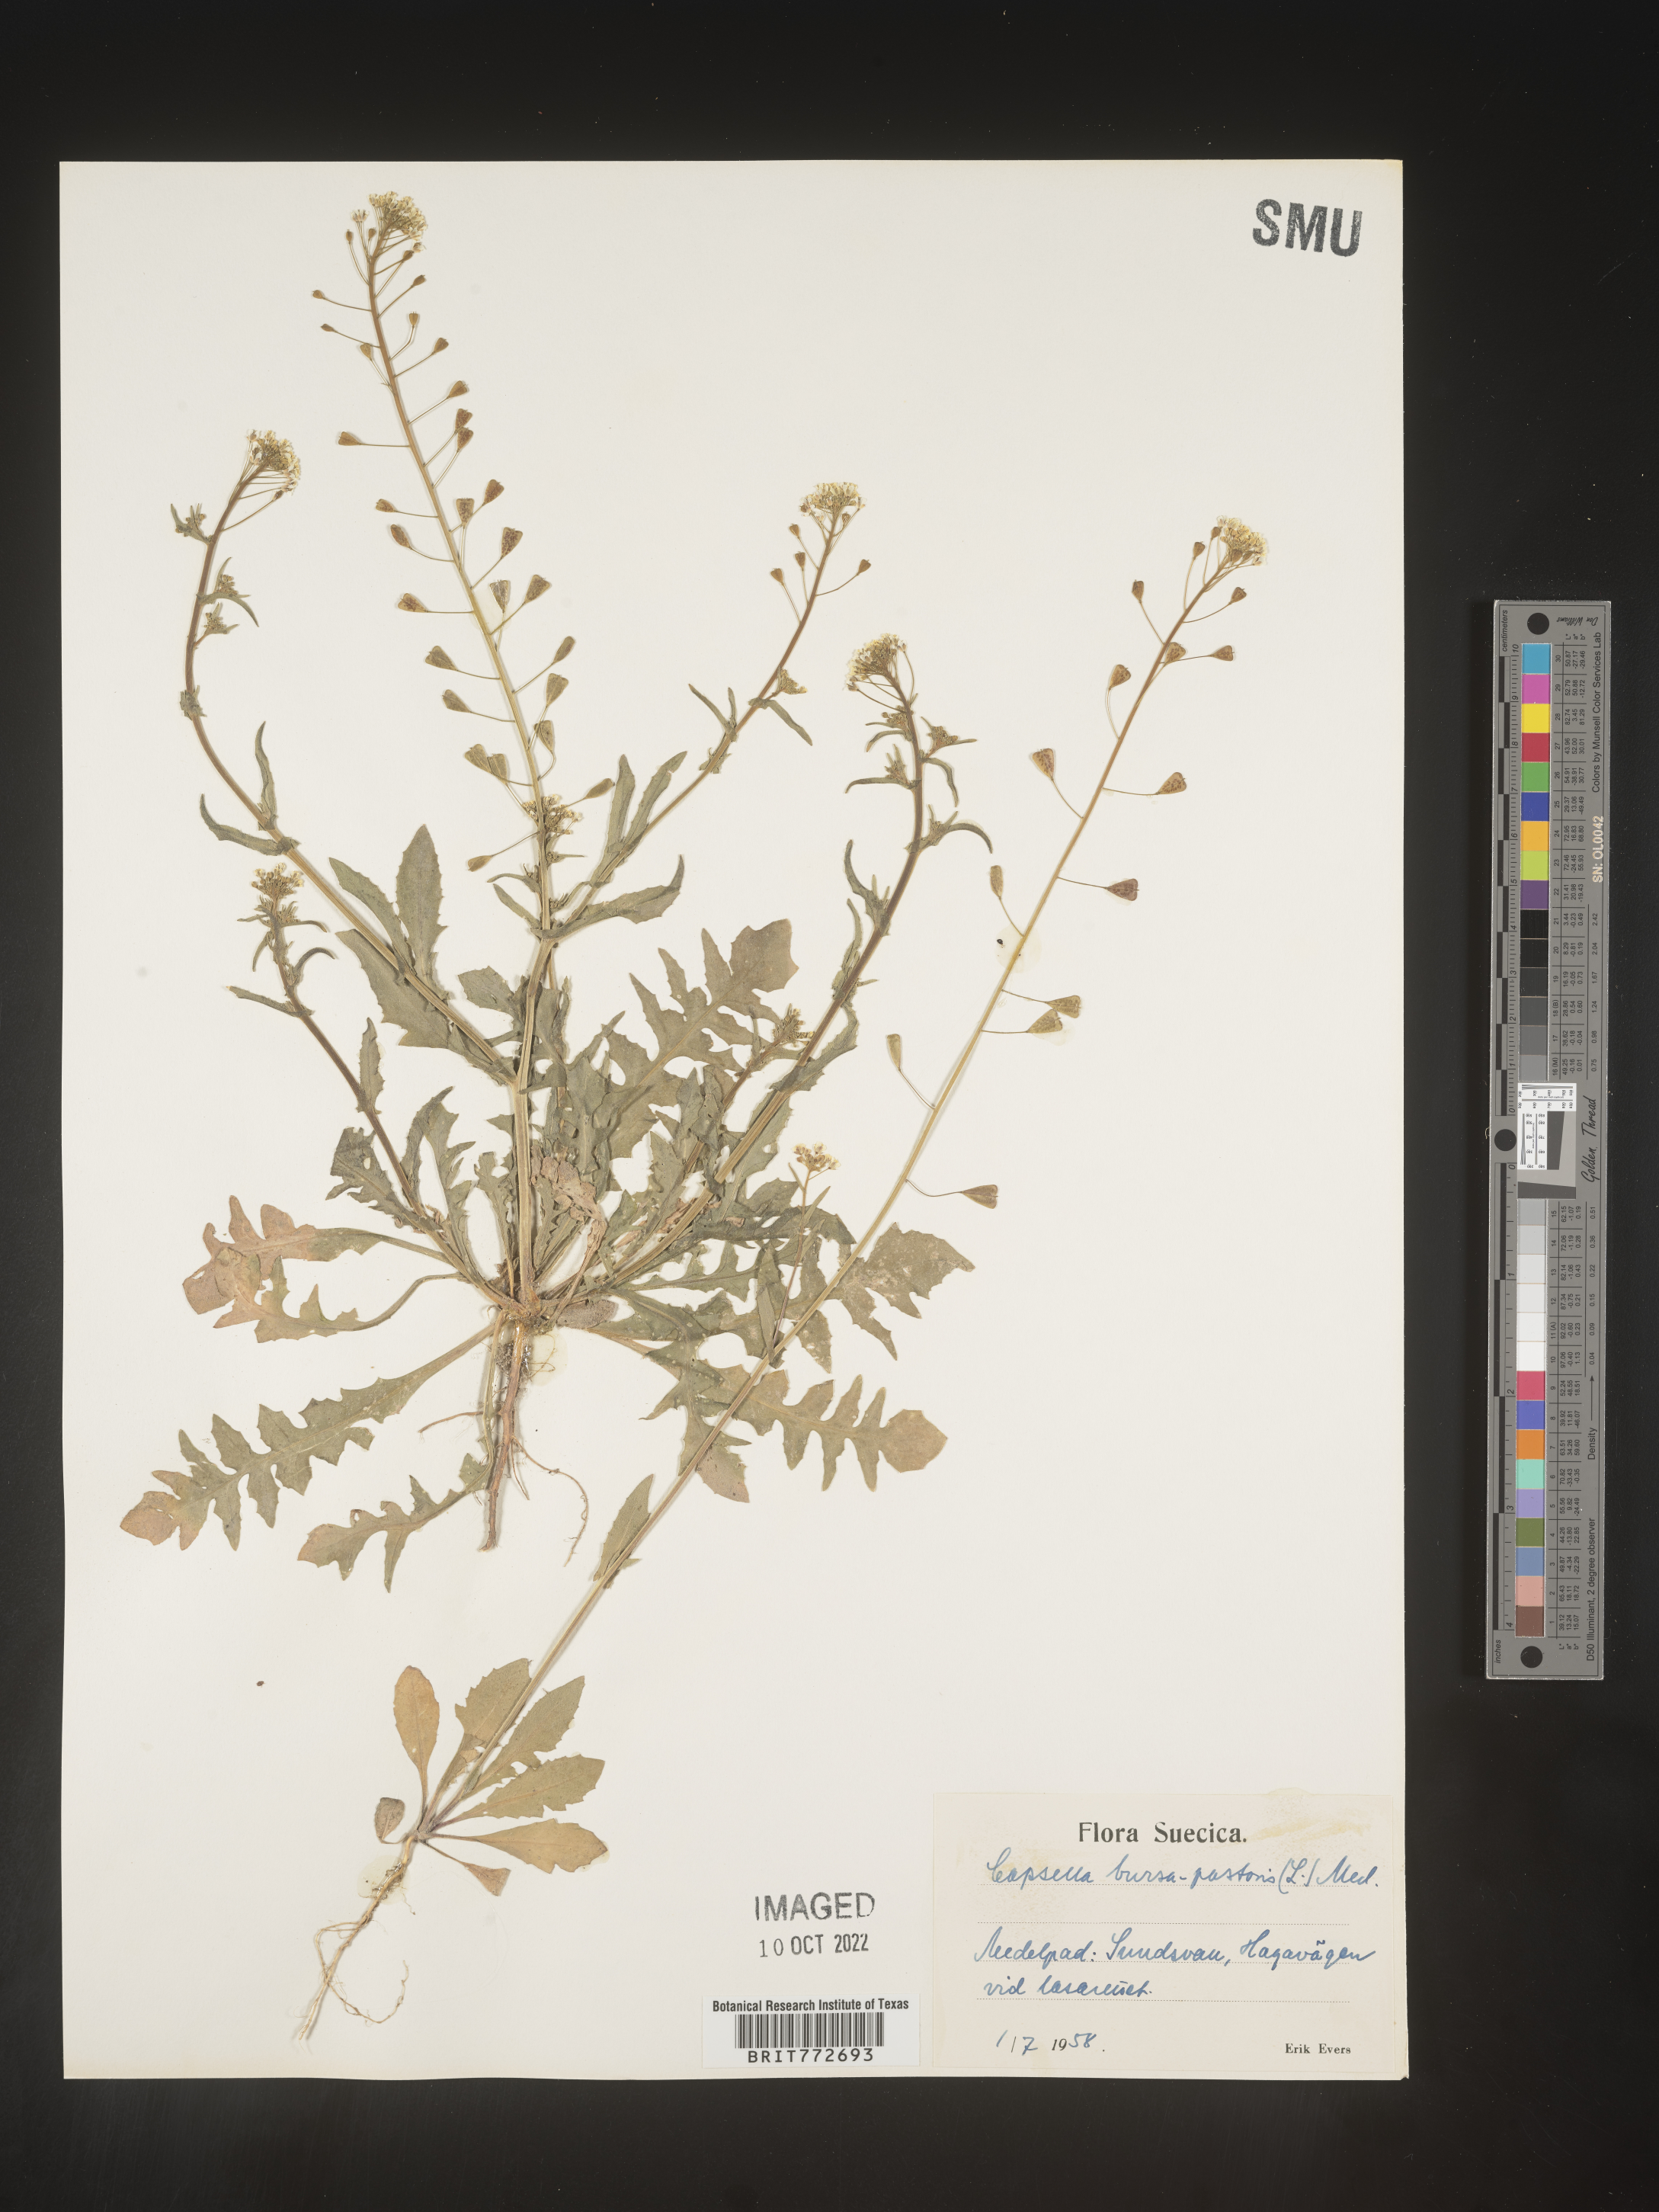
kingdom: Plantae
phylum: Tracheophyta
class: Magnoliopsida
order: Brassicales
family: Brassicaceae
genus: Capsella
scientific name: Capsella
